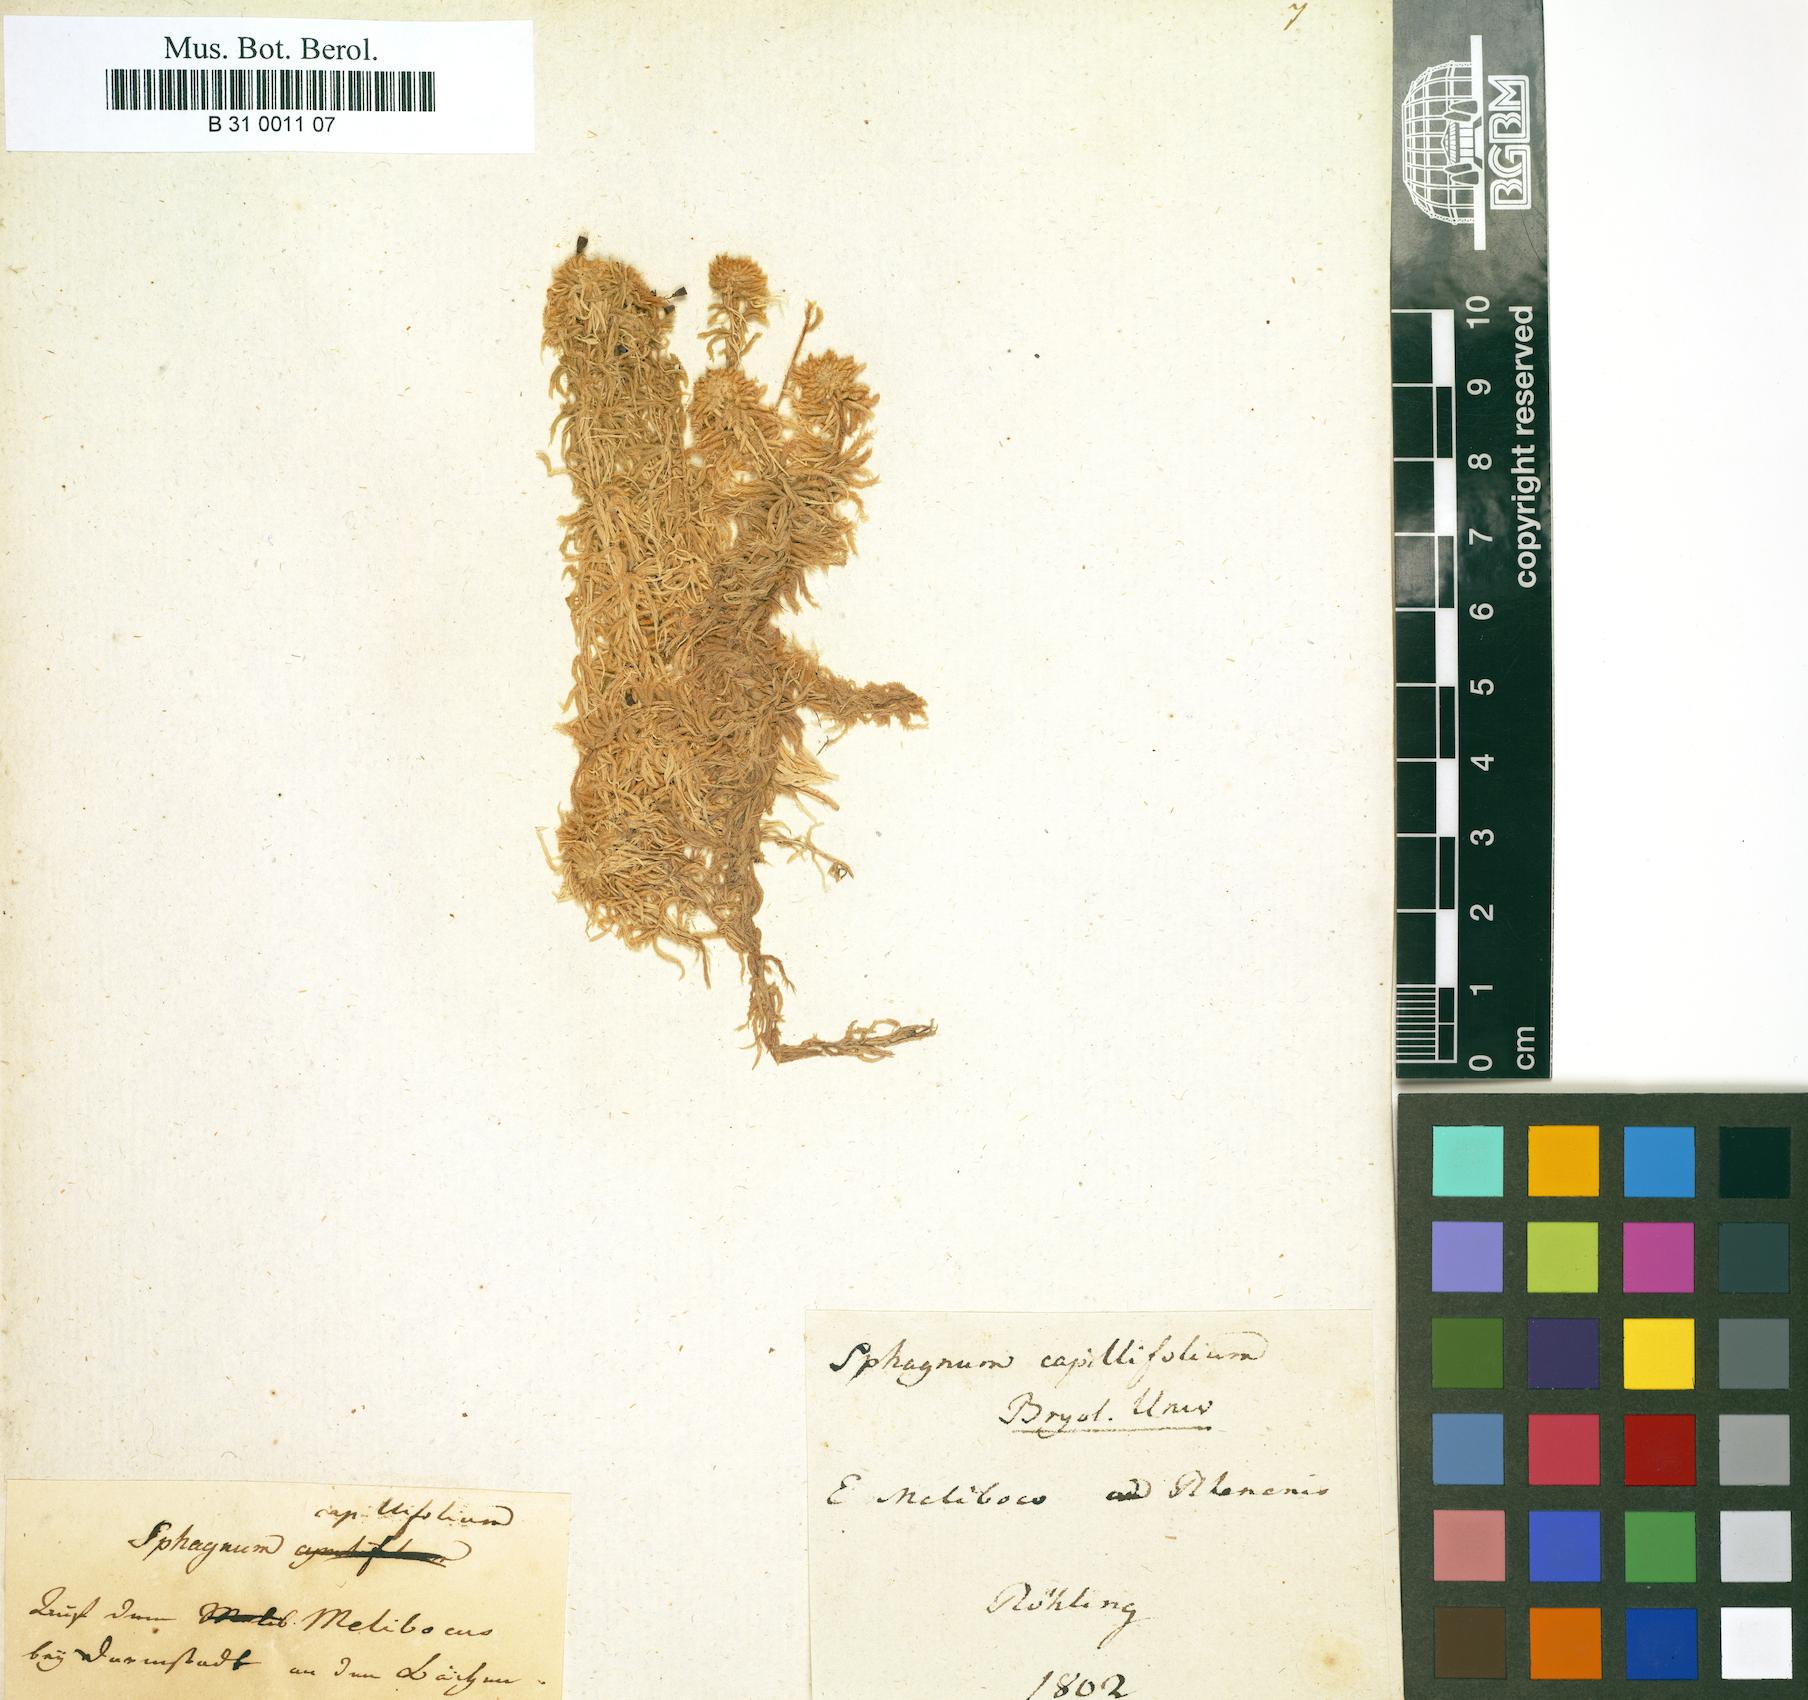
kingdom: Plantae
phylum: Bryophyta
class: Sphagnopsida
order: Sphagnales
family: Sphagnaceae
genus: Sphagnum
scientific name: Sphagnum capillifolium
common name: Small red peat moss
